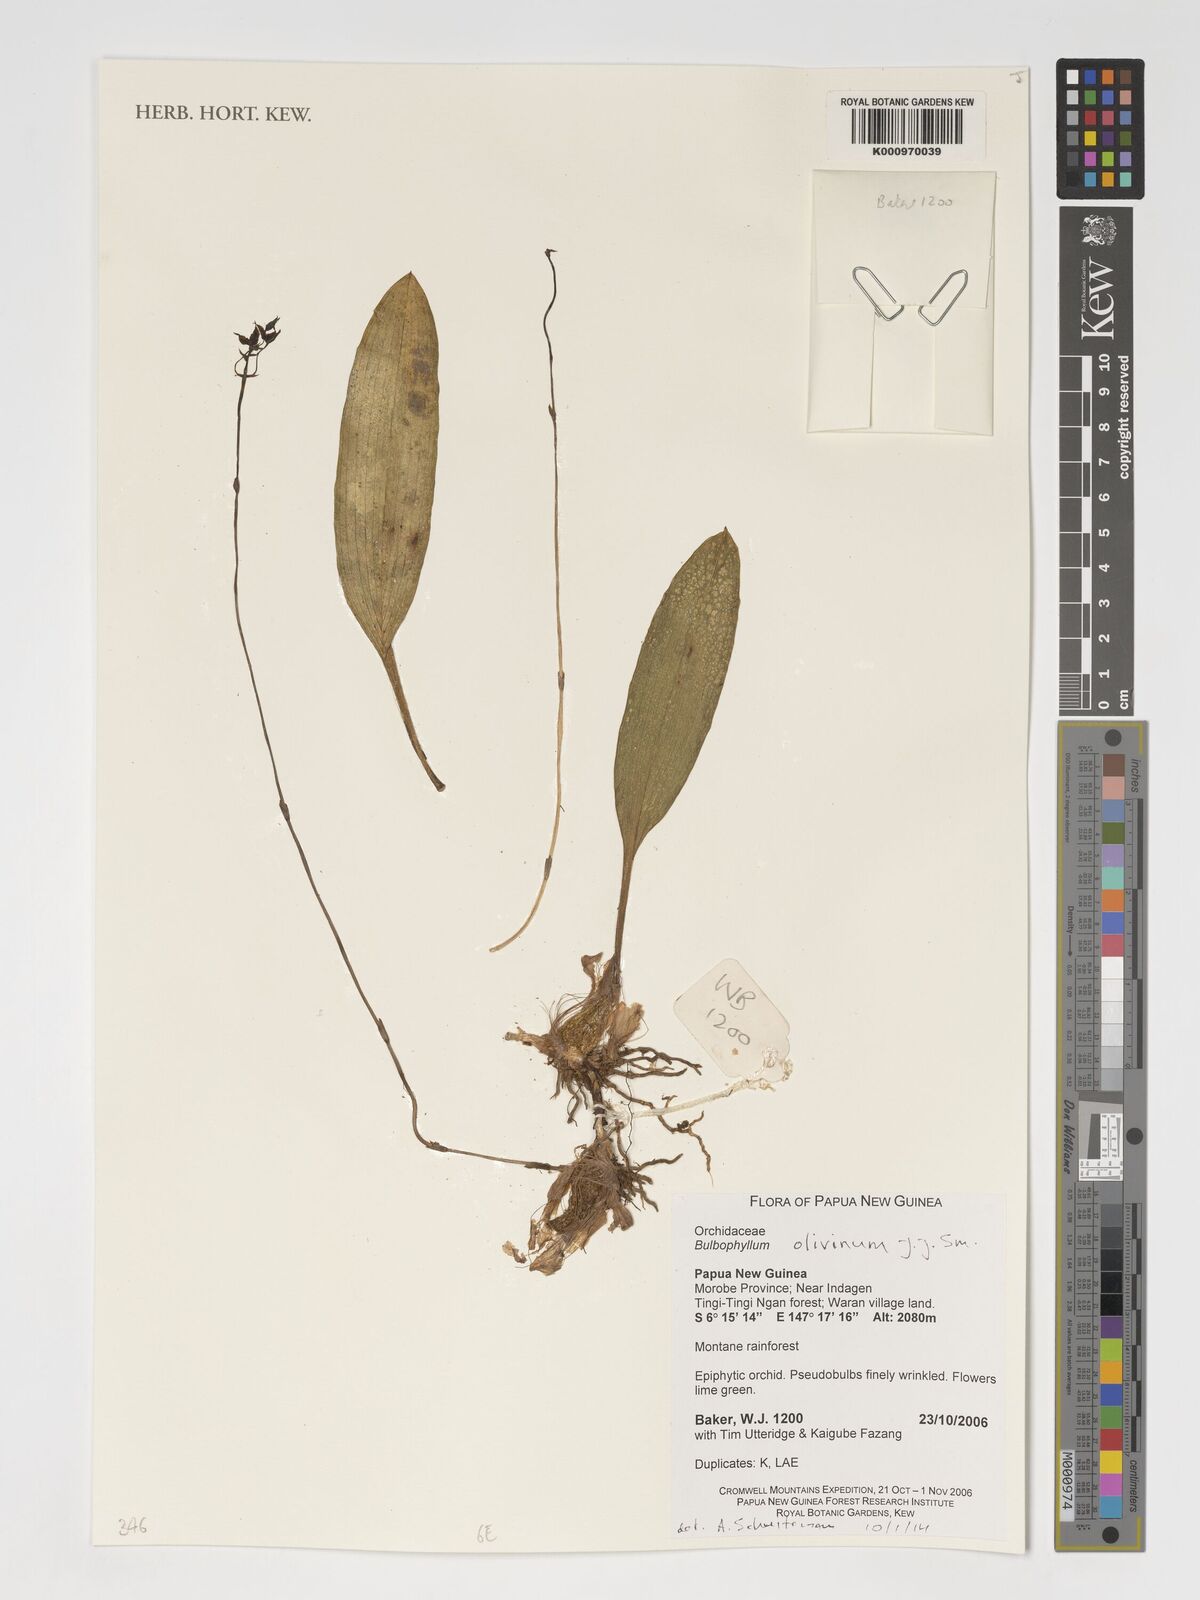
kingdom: Plantae
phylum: Tracheophyta
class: Liliopsida
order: Asparagales
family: Orchidaceae
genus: Bulbophyllum
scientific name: Bulbophyllum olivinum
